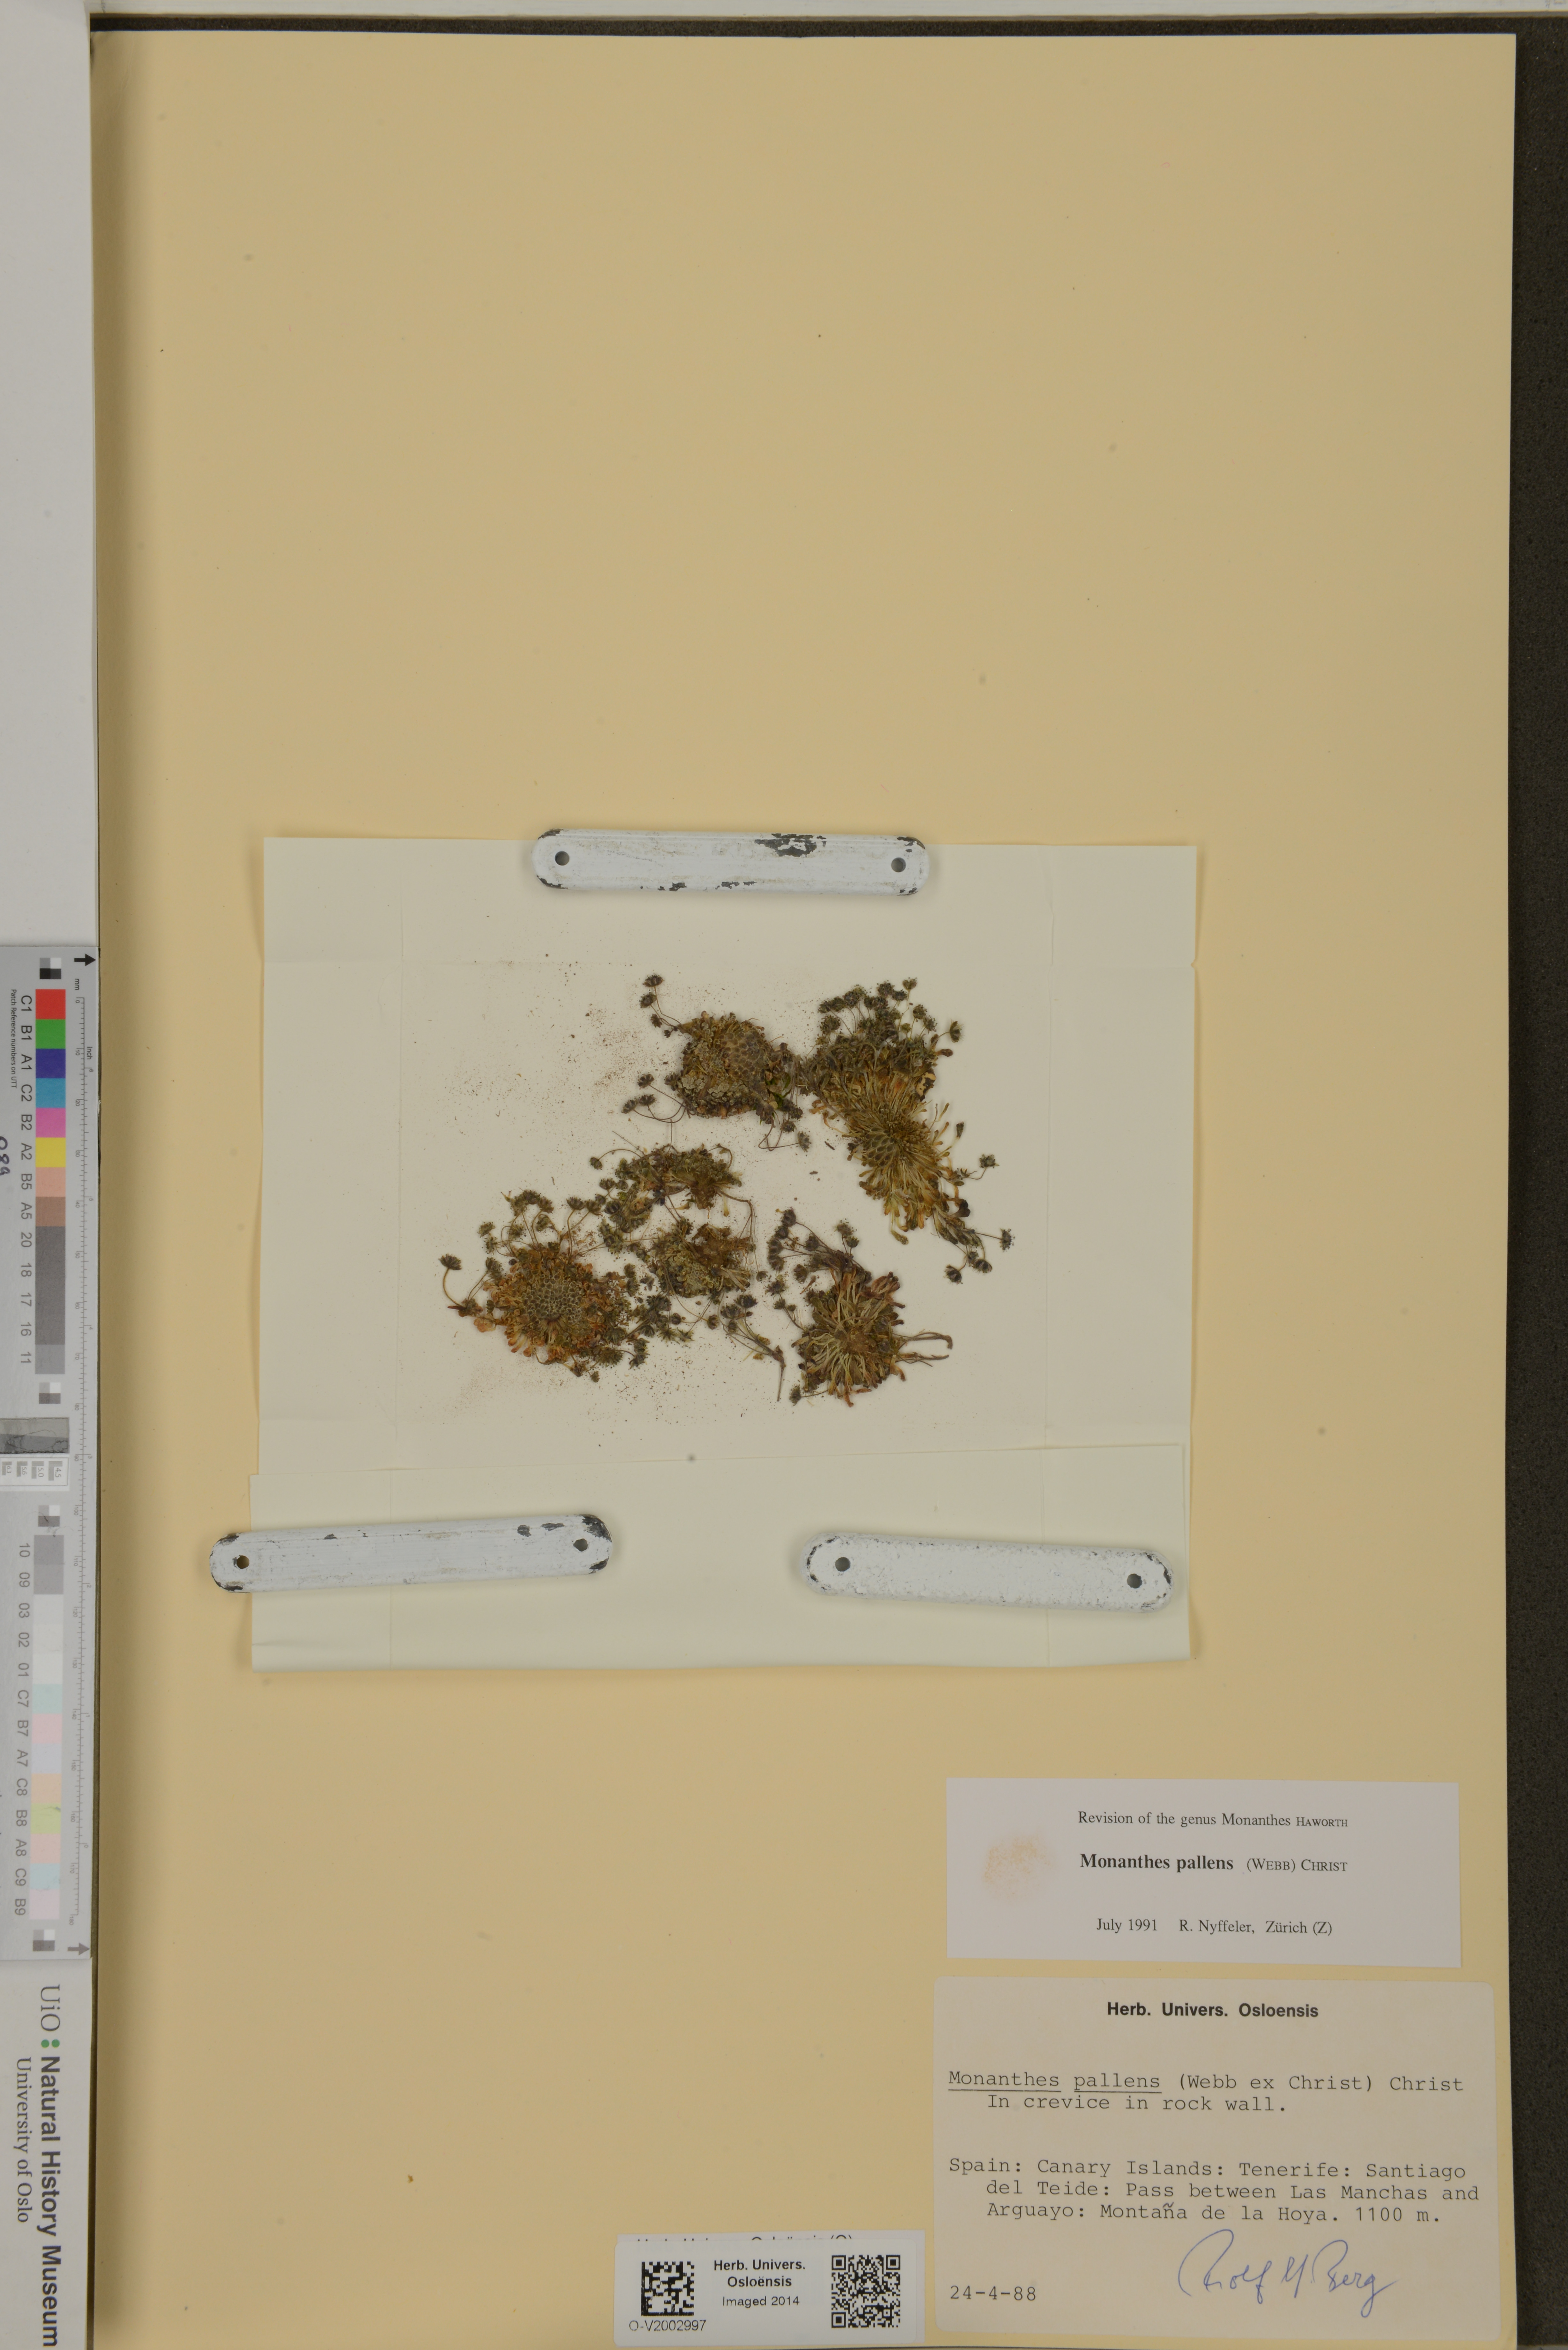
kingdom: Plantae
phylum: Tracheophyta
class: Magnoliopsida
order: Saxifragales
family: Crassulaceae
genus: Monanthes
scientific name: Monanthes pallens
